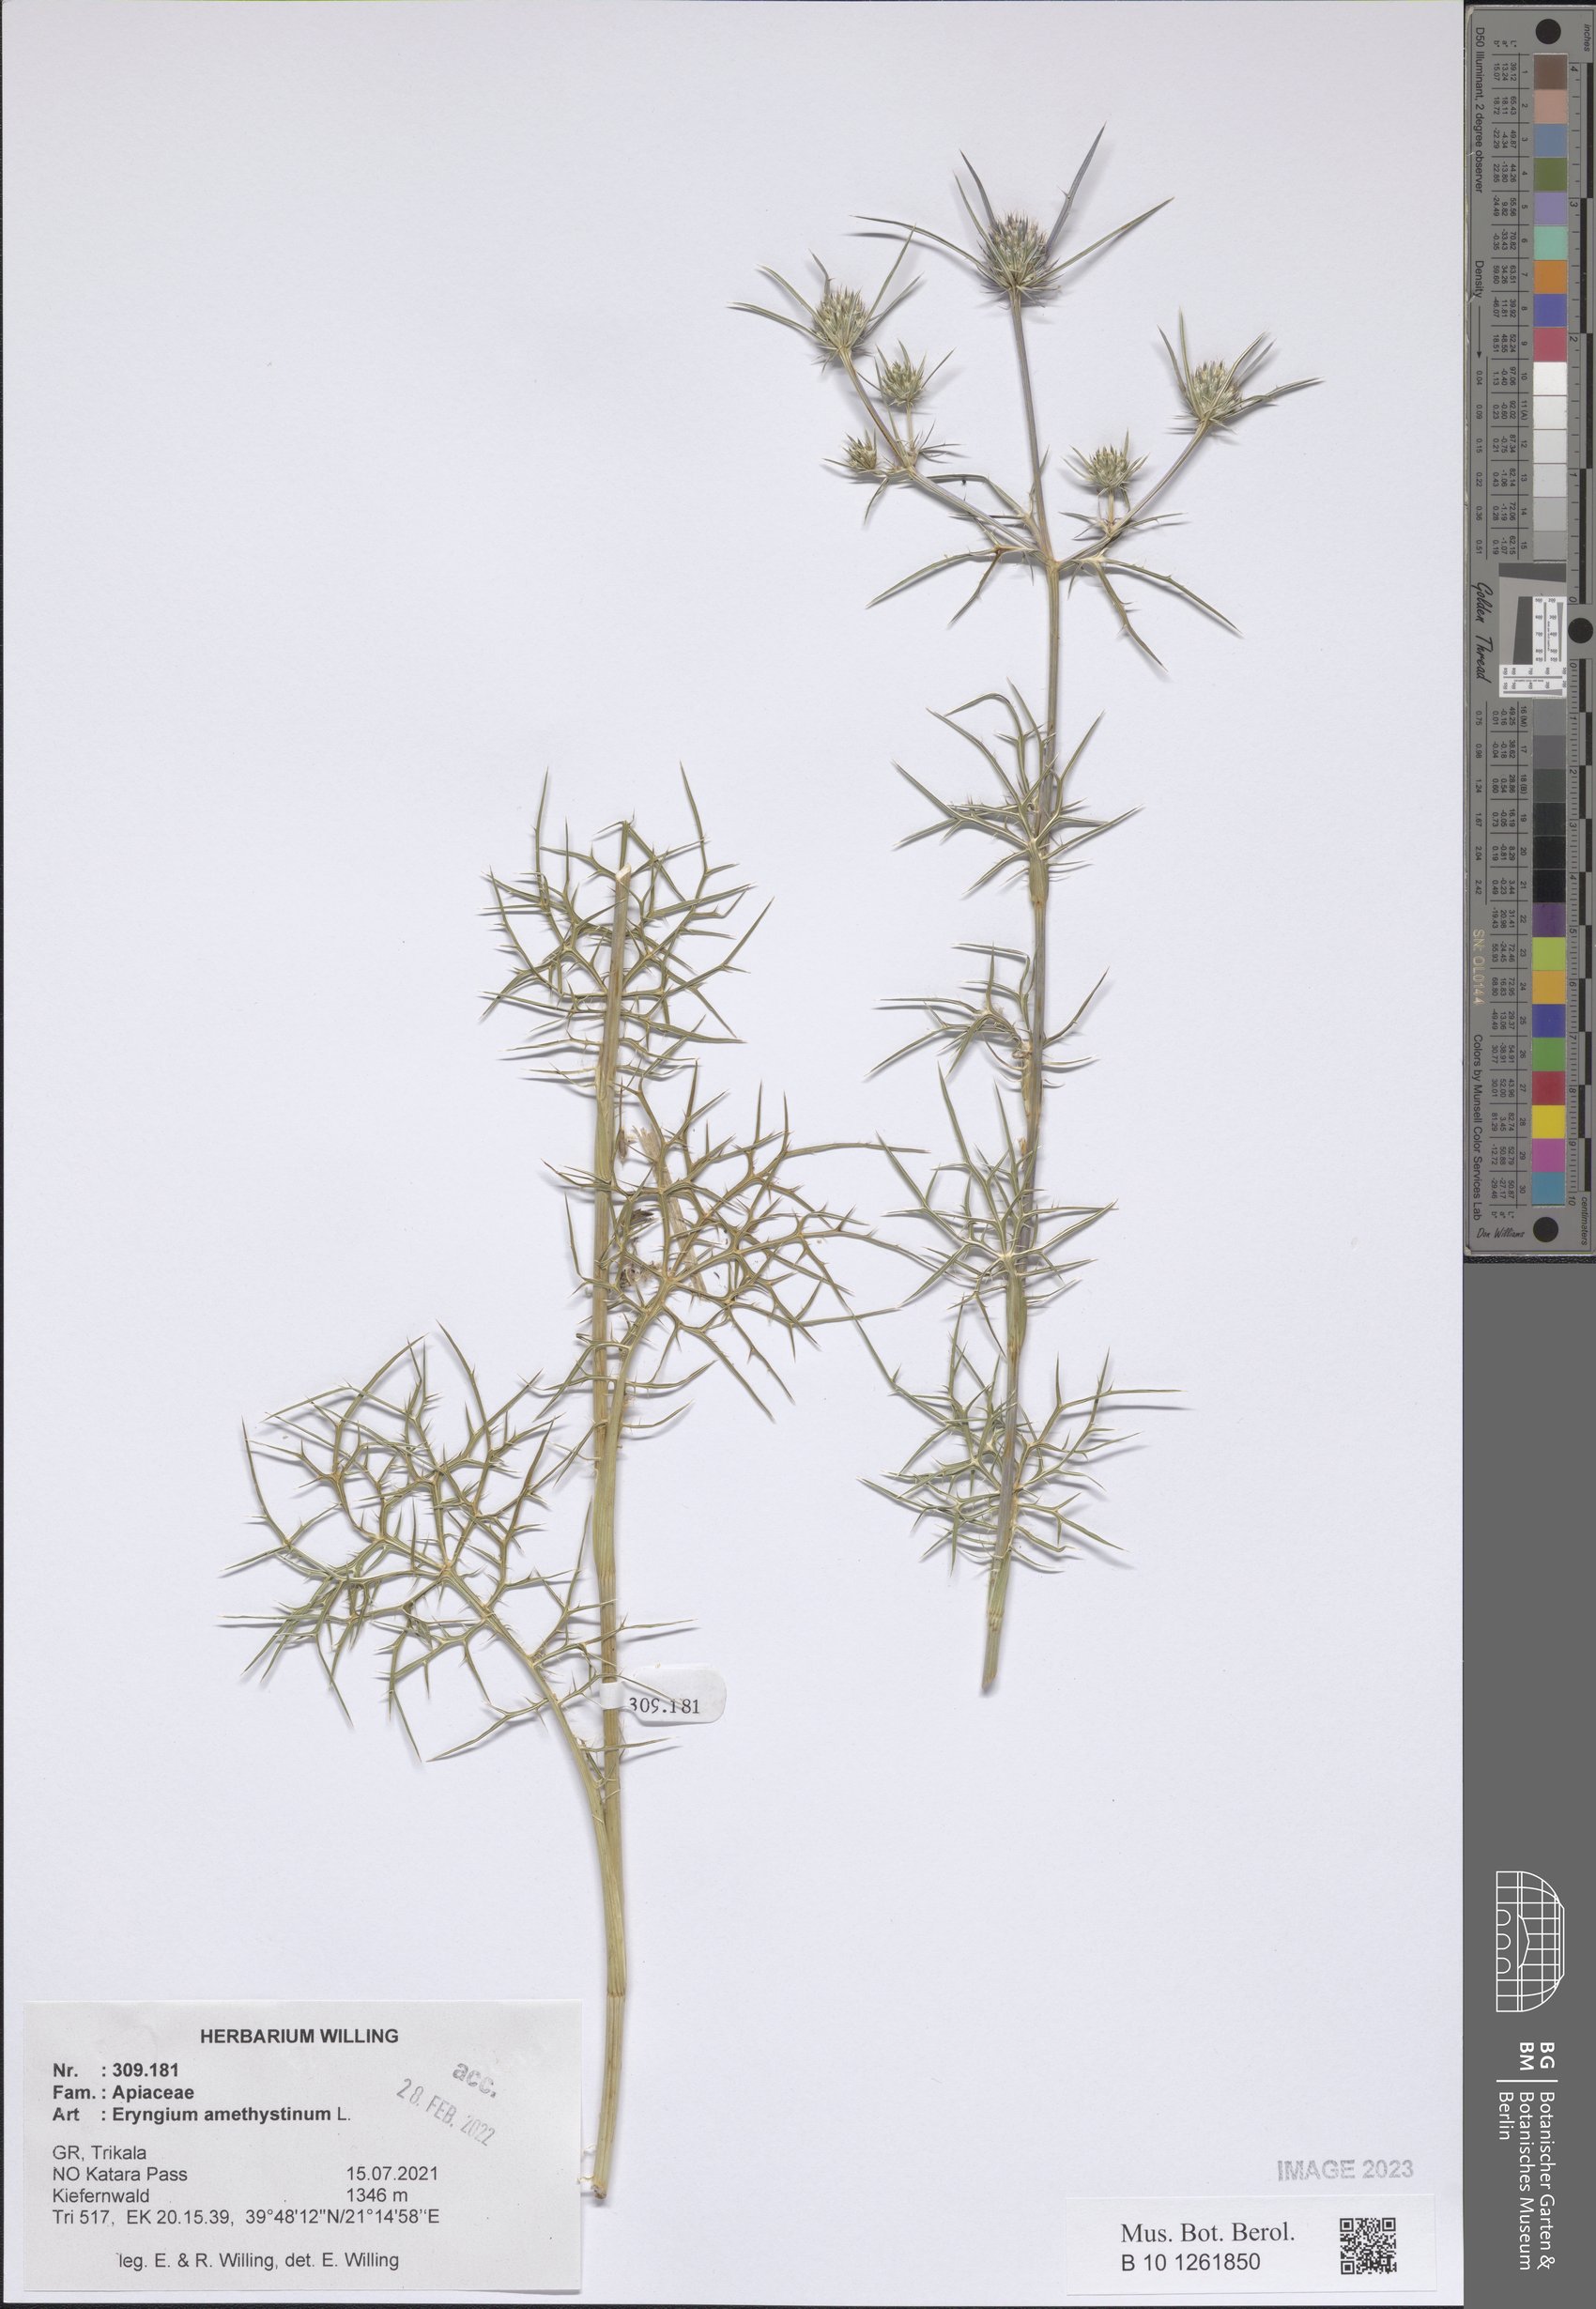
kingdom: Plantae
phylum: Tracheophyta
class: Magnoliopsida
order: Apiales
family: Apiaceae
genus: Eryngium
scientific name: Eryngium amethystinum
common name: Amethyst eryngo
